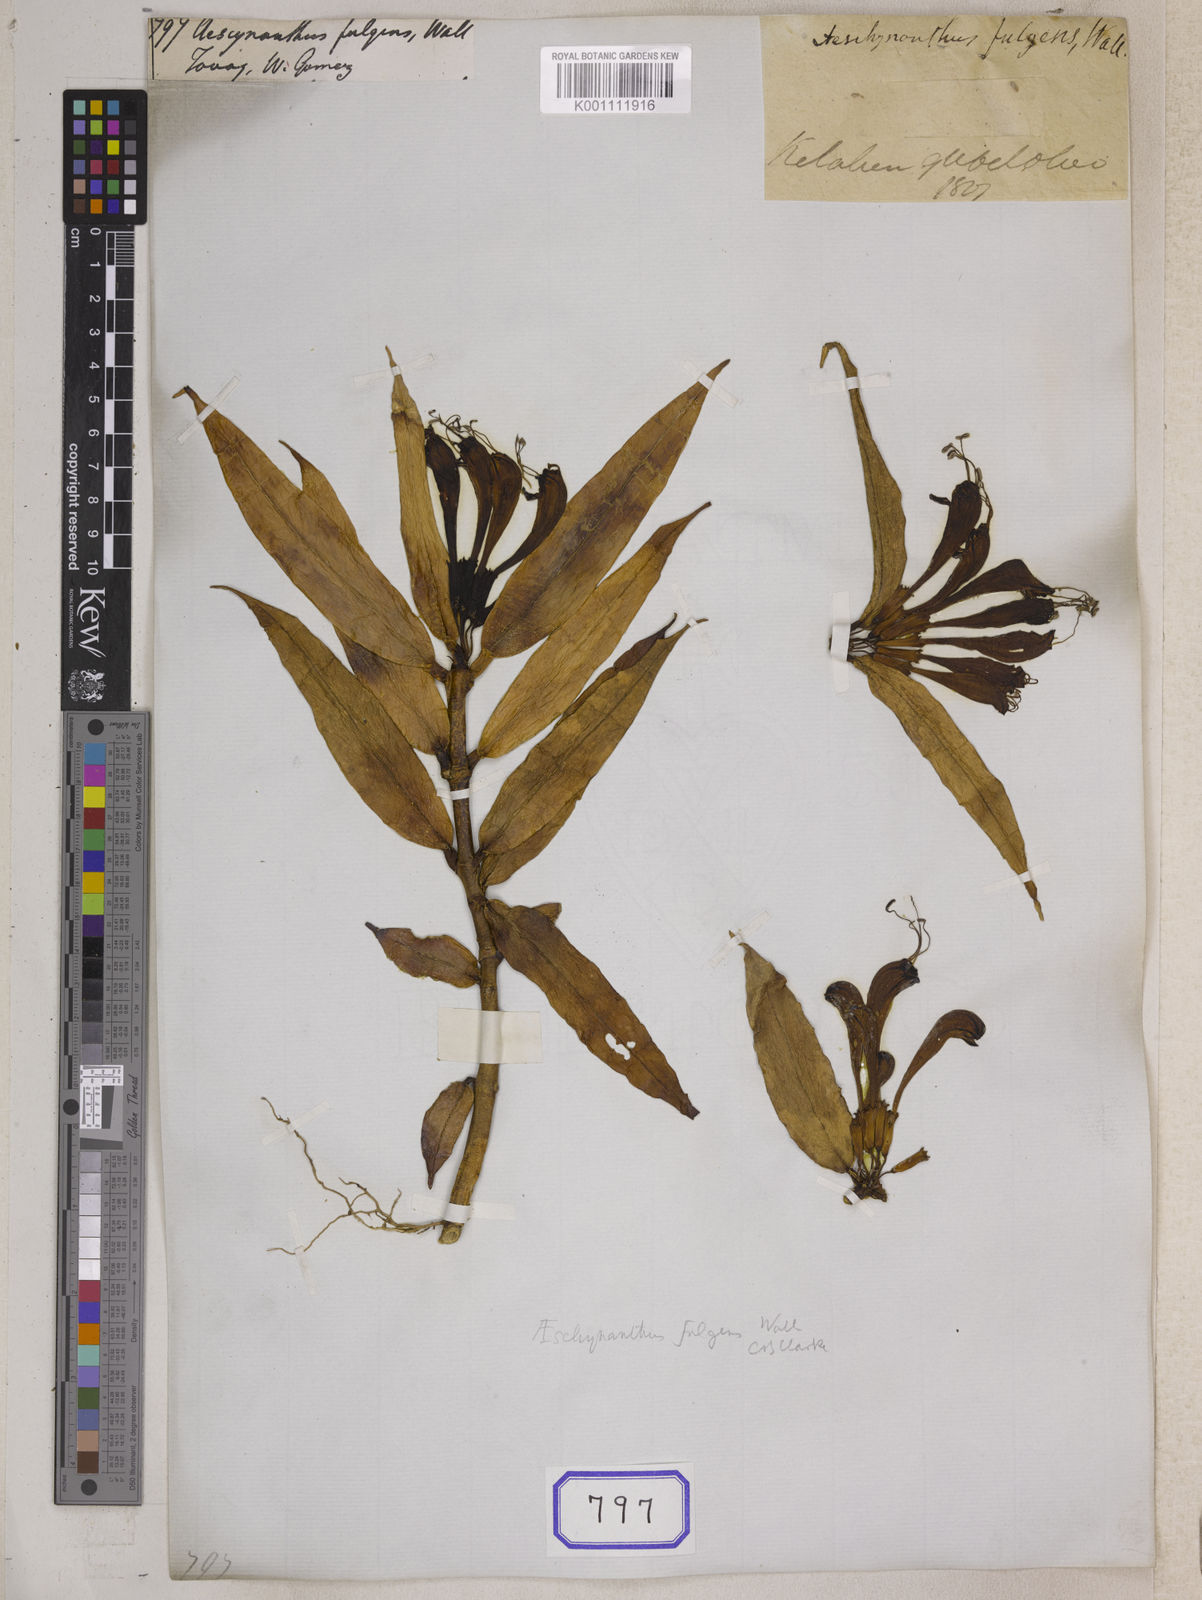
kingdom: Plantae
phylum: Tracheophyta
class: Magnoliopsida
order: Lamiales
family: Gesneriaceae
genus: Aeschynanthus
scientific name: Aeschynanthus
